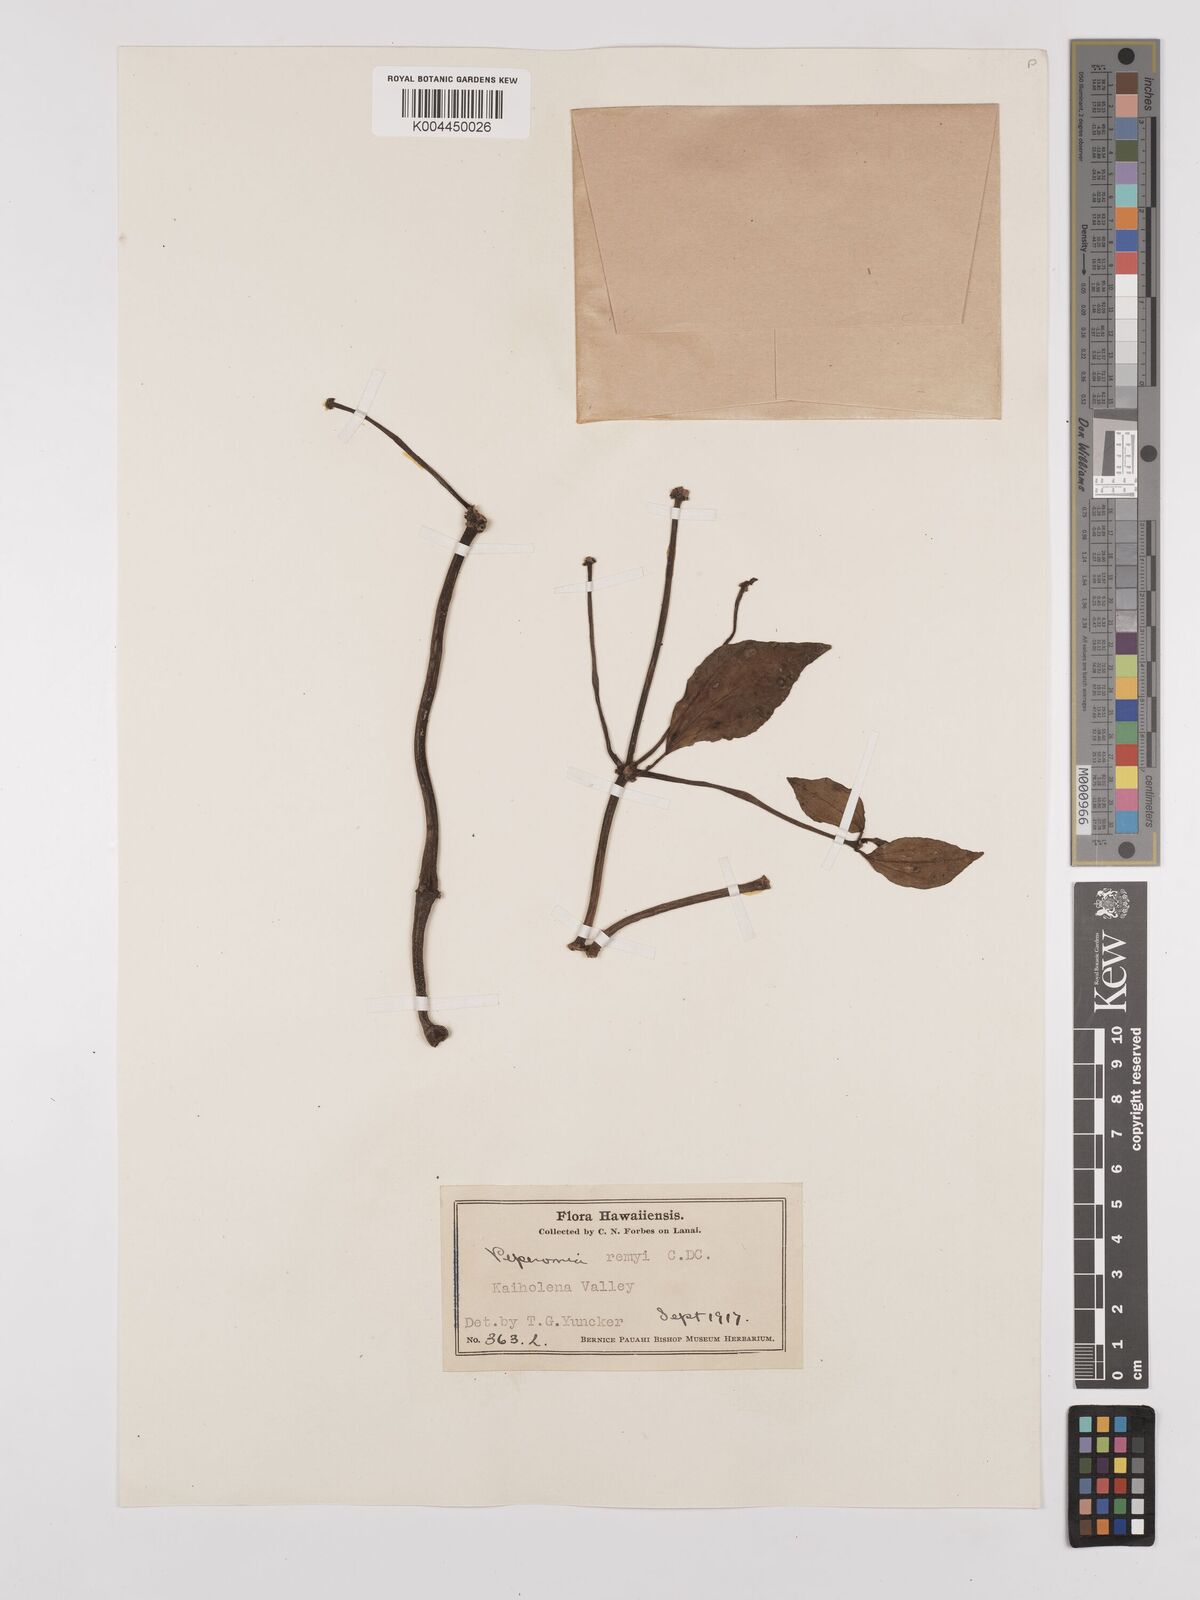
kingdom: Plantae
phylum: Tracheophyta
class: Magnoliopsida
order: Piperales
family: Piperaceae
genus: Peperomia
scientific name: Peperomia remyi
